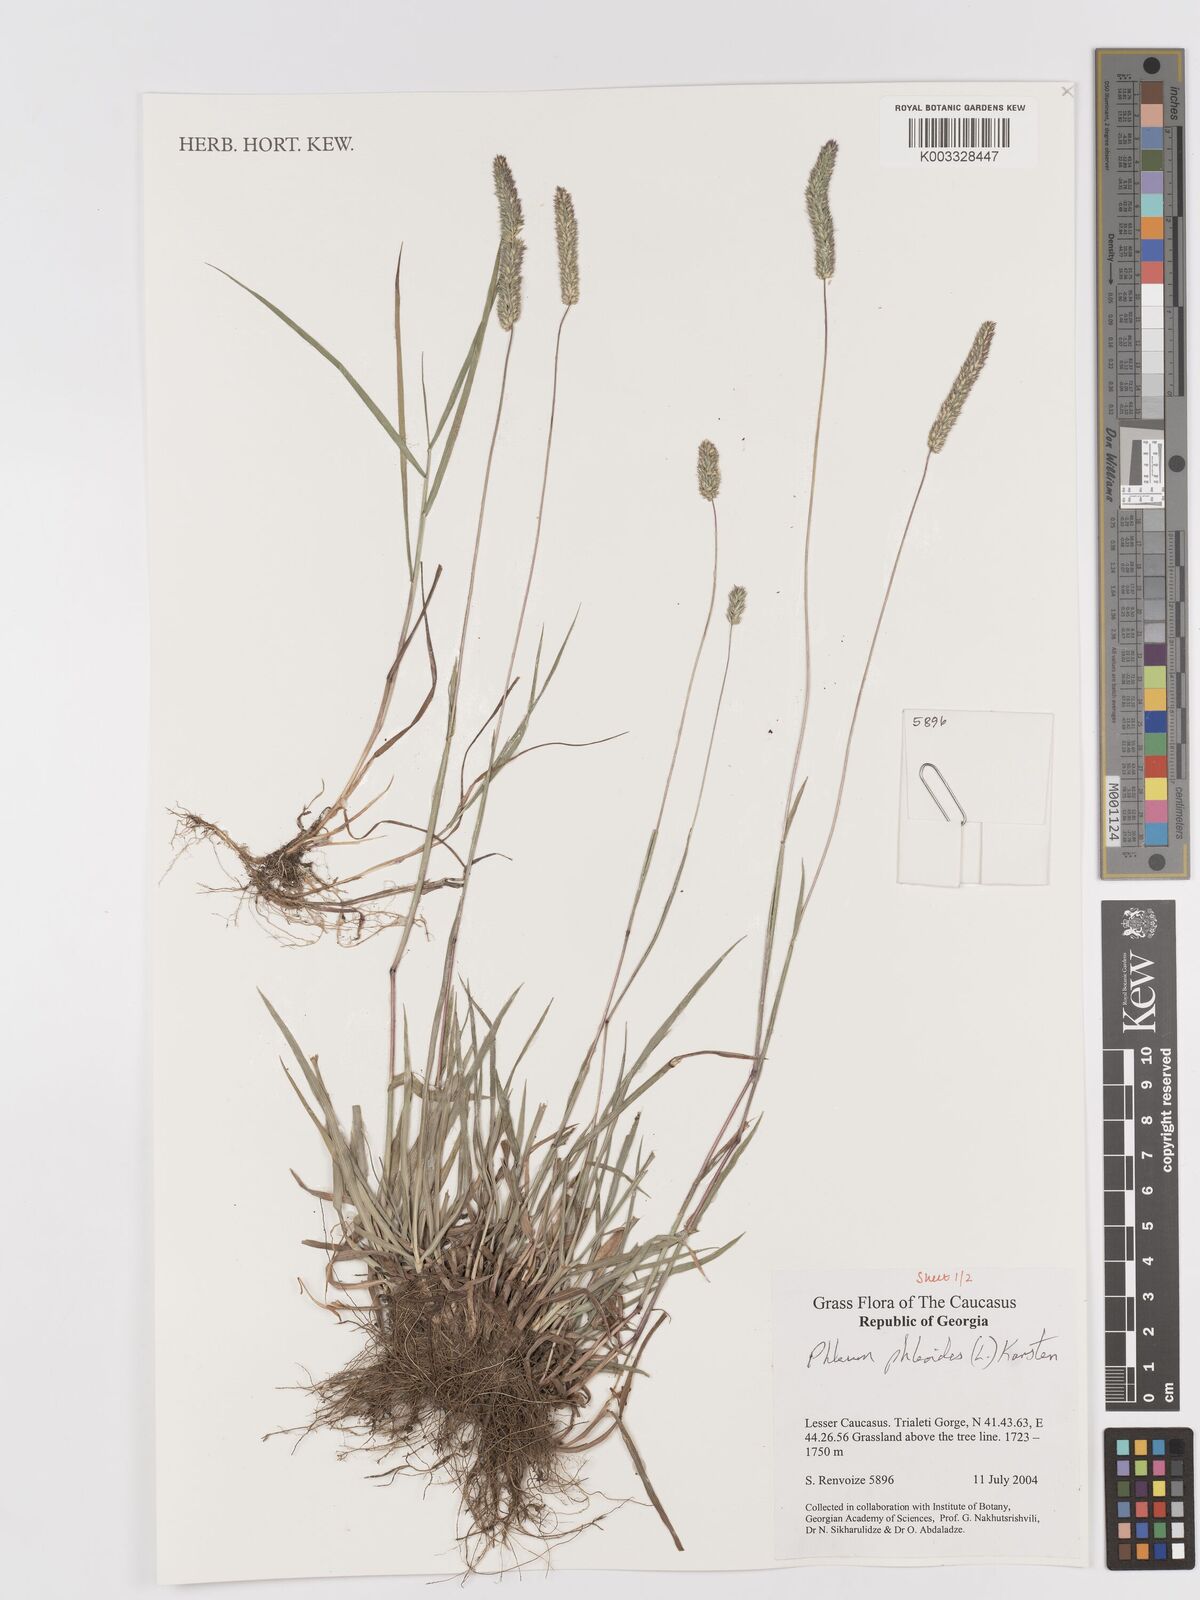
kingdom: Plantae
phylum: Tracheophyta
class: Liliopsida
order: Poales
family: Poaceae
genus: Phleum
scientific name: Phleum phleoides
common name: Purple-stem cat's-tail
